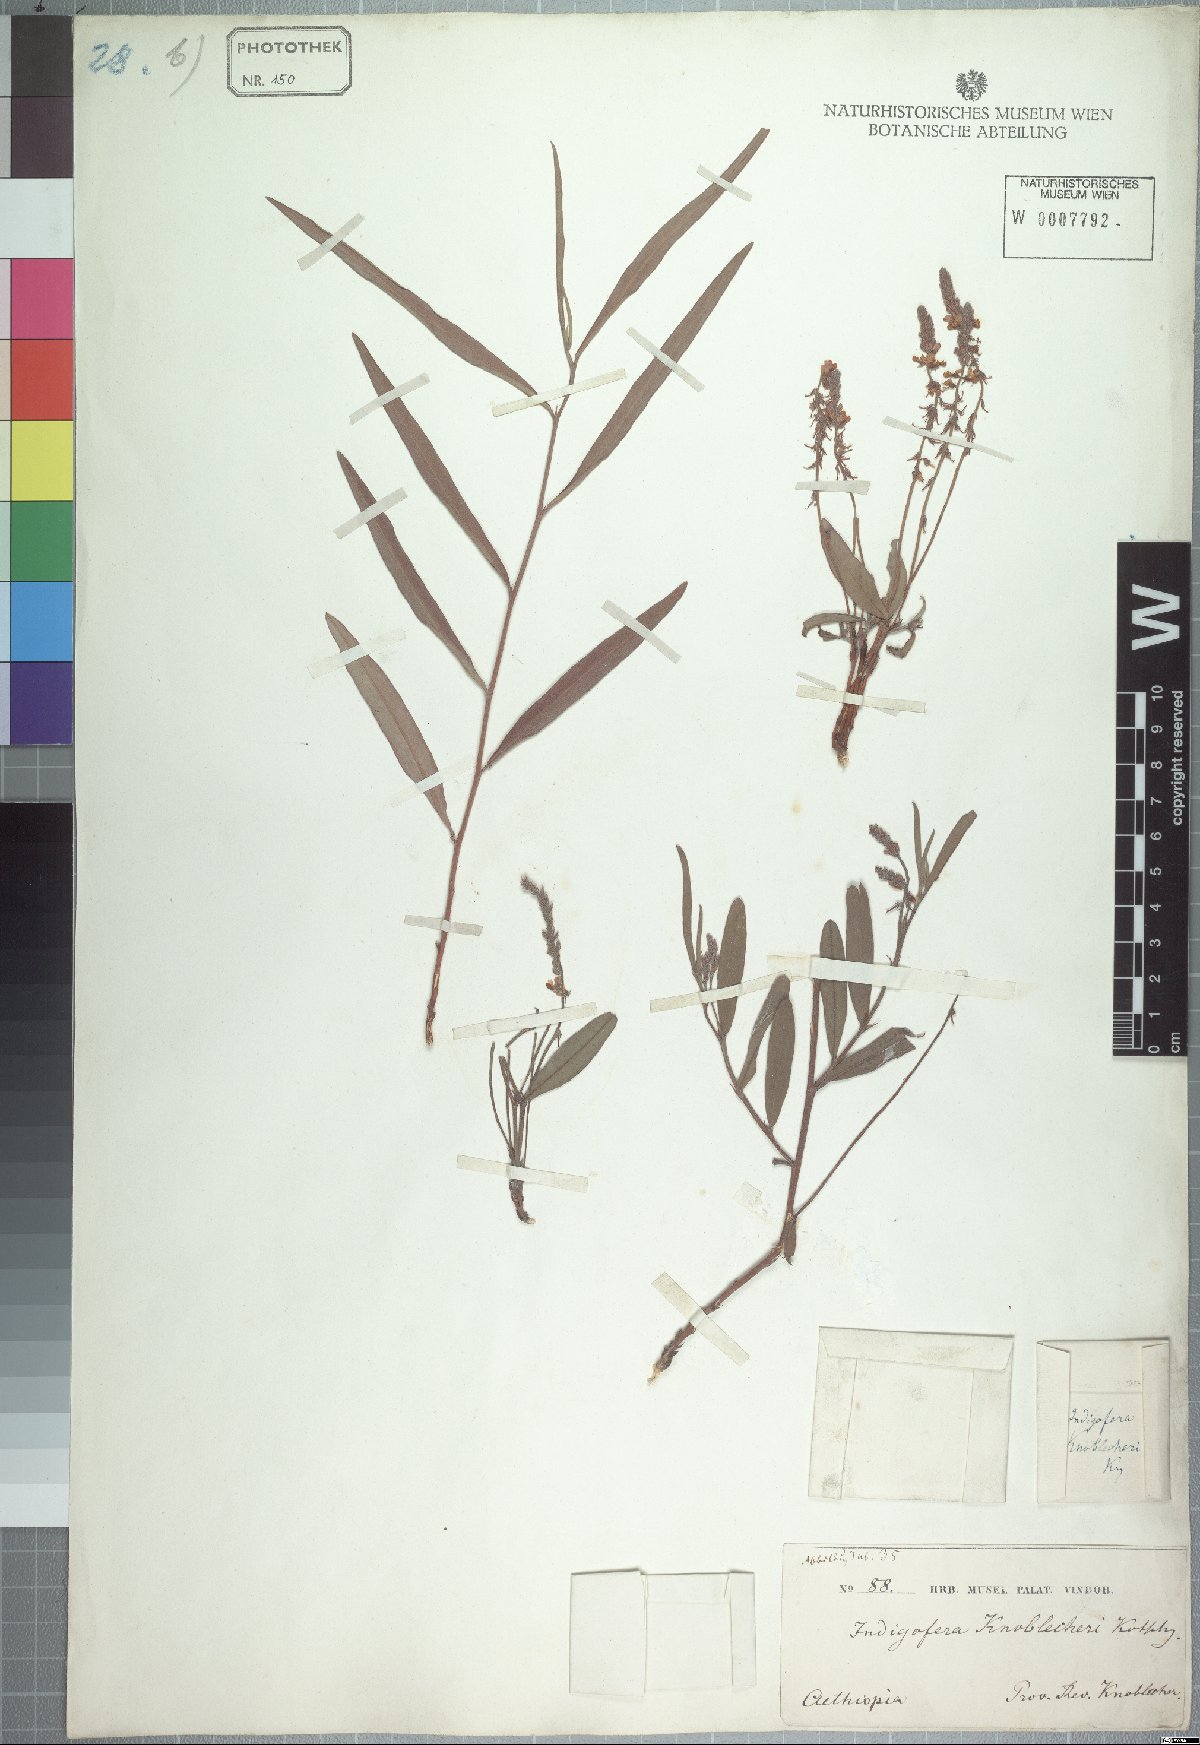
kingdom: Plantae
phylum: Tracheophyta
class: Magnoliopsida
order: Fabales
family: Fabaceae
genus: Indigofera
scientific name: Indigofera conjugata
